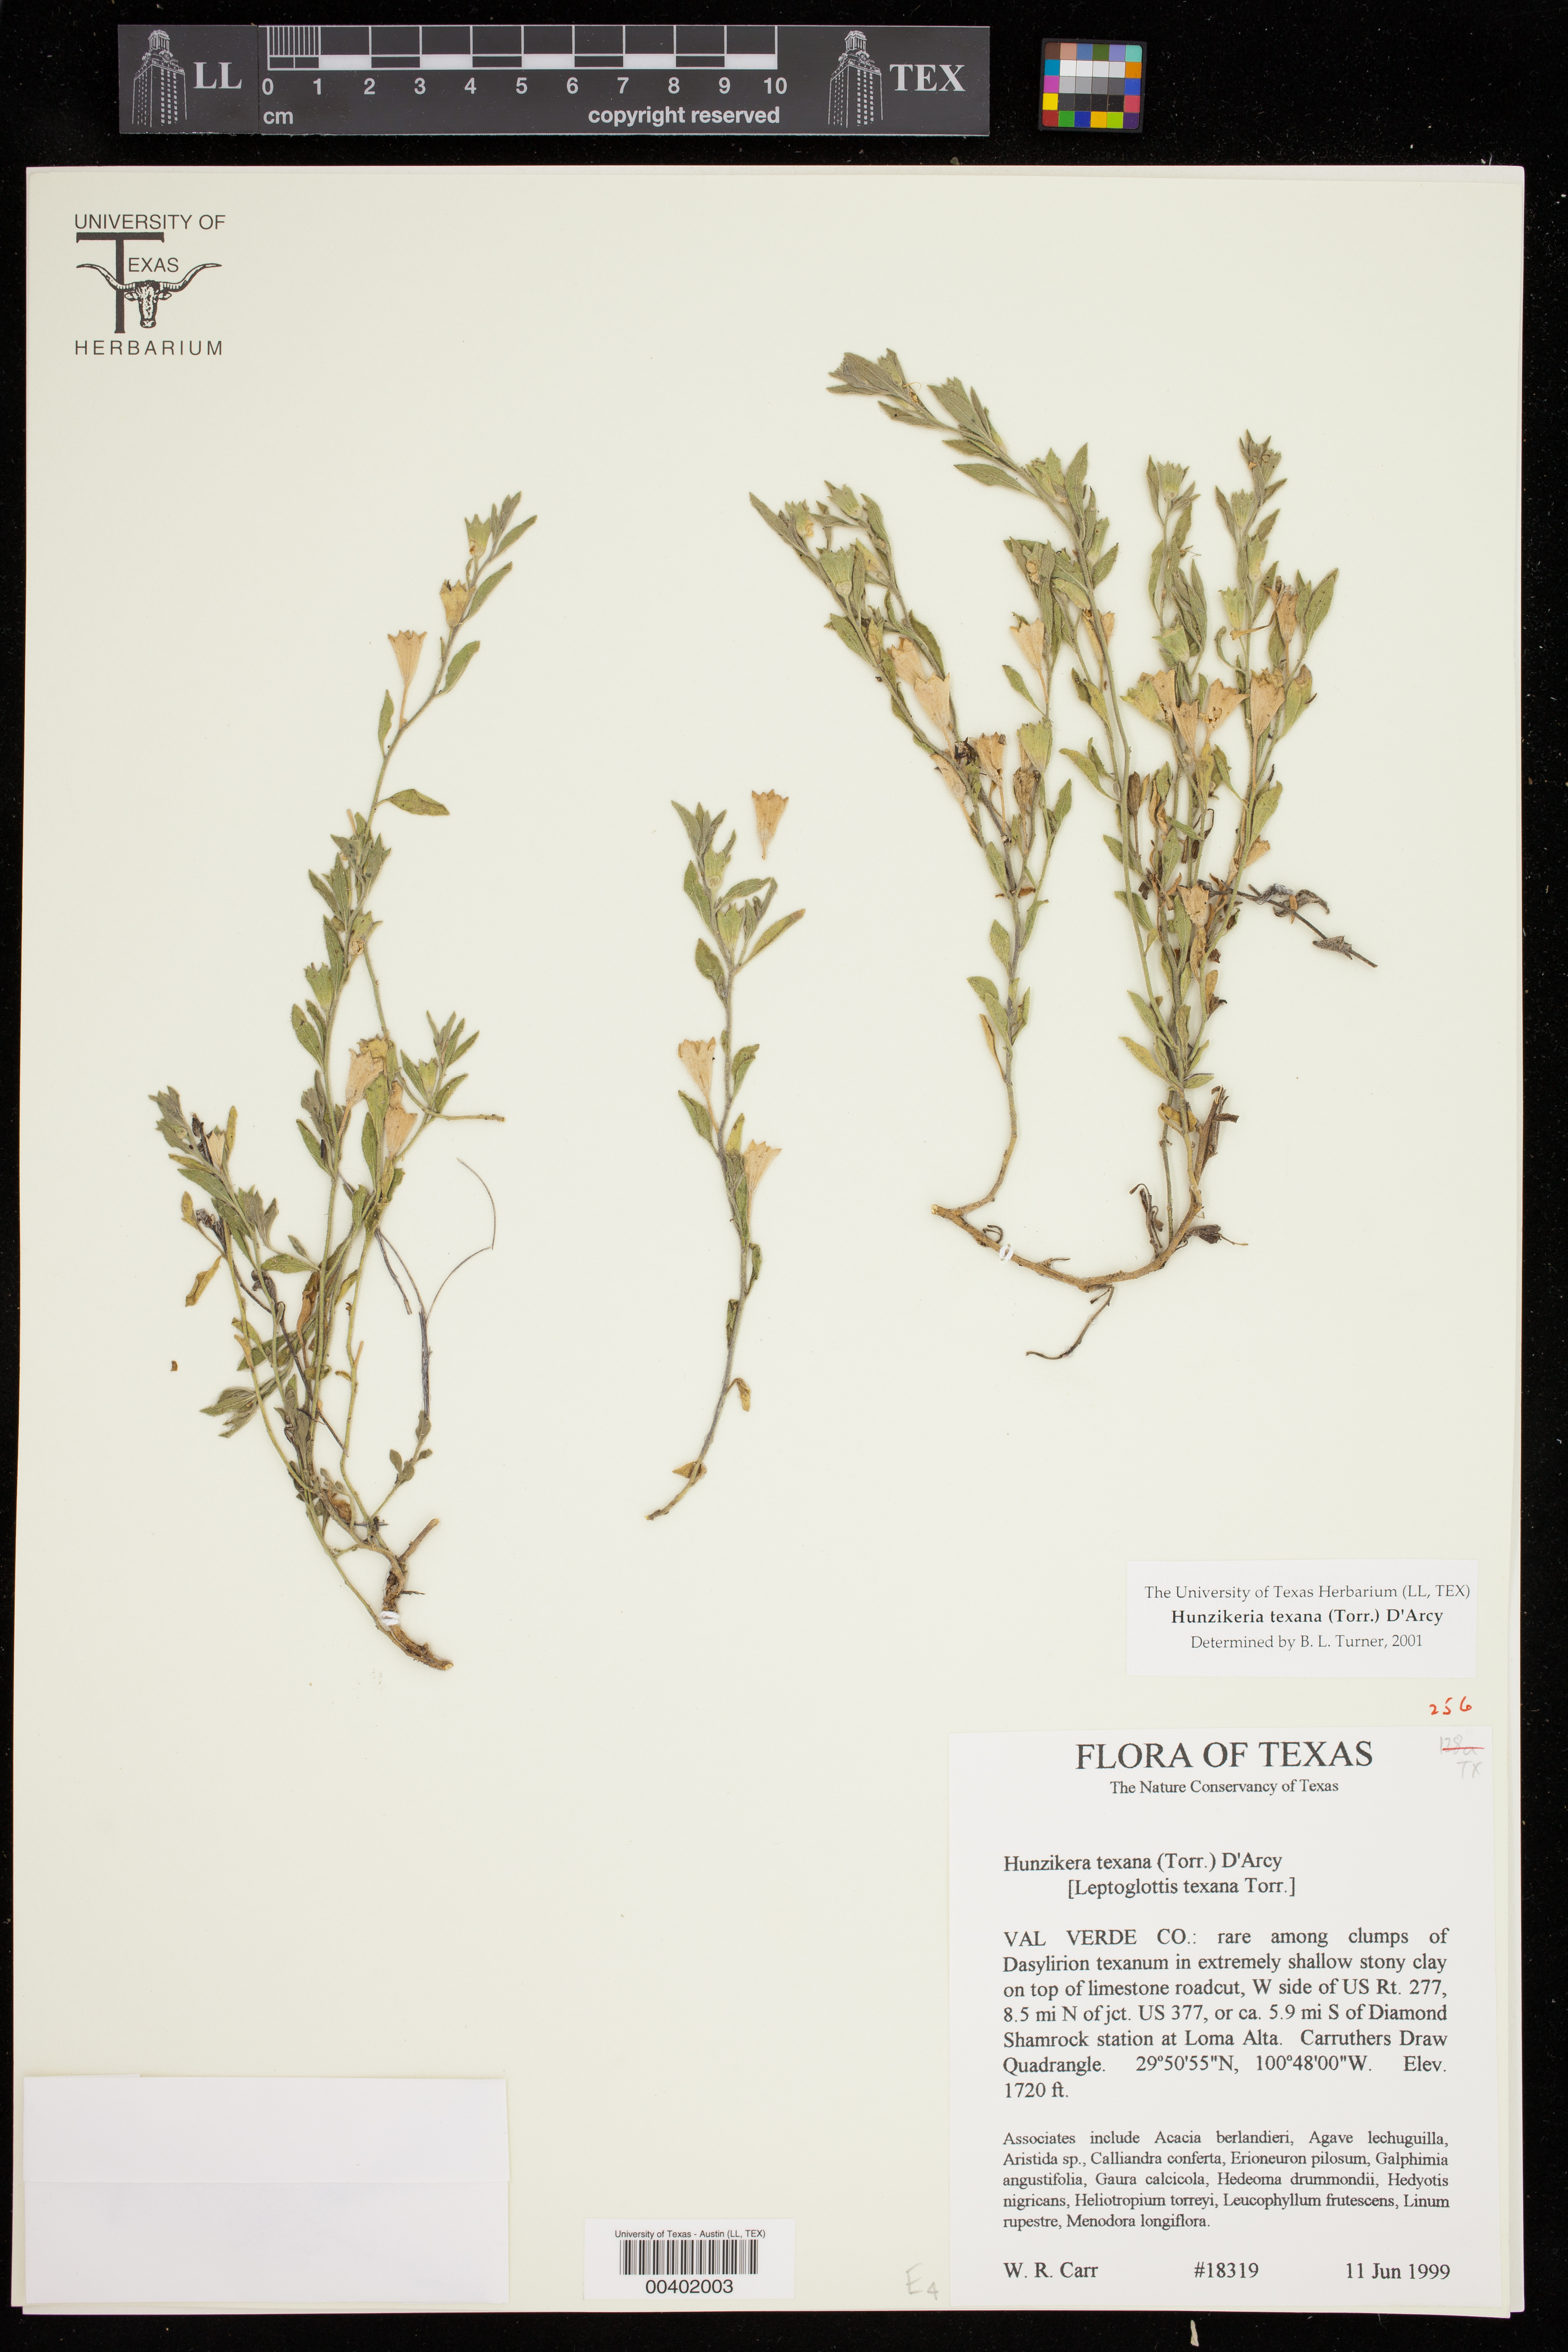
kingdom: Plantae
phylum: Tracheophyta
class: Magnoliopsida
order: Solanales
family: Solanaceae
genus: Hunzikeria
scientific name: Hunzikeria texana
